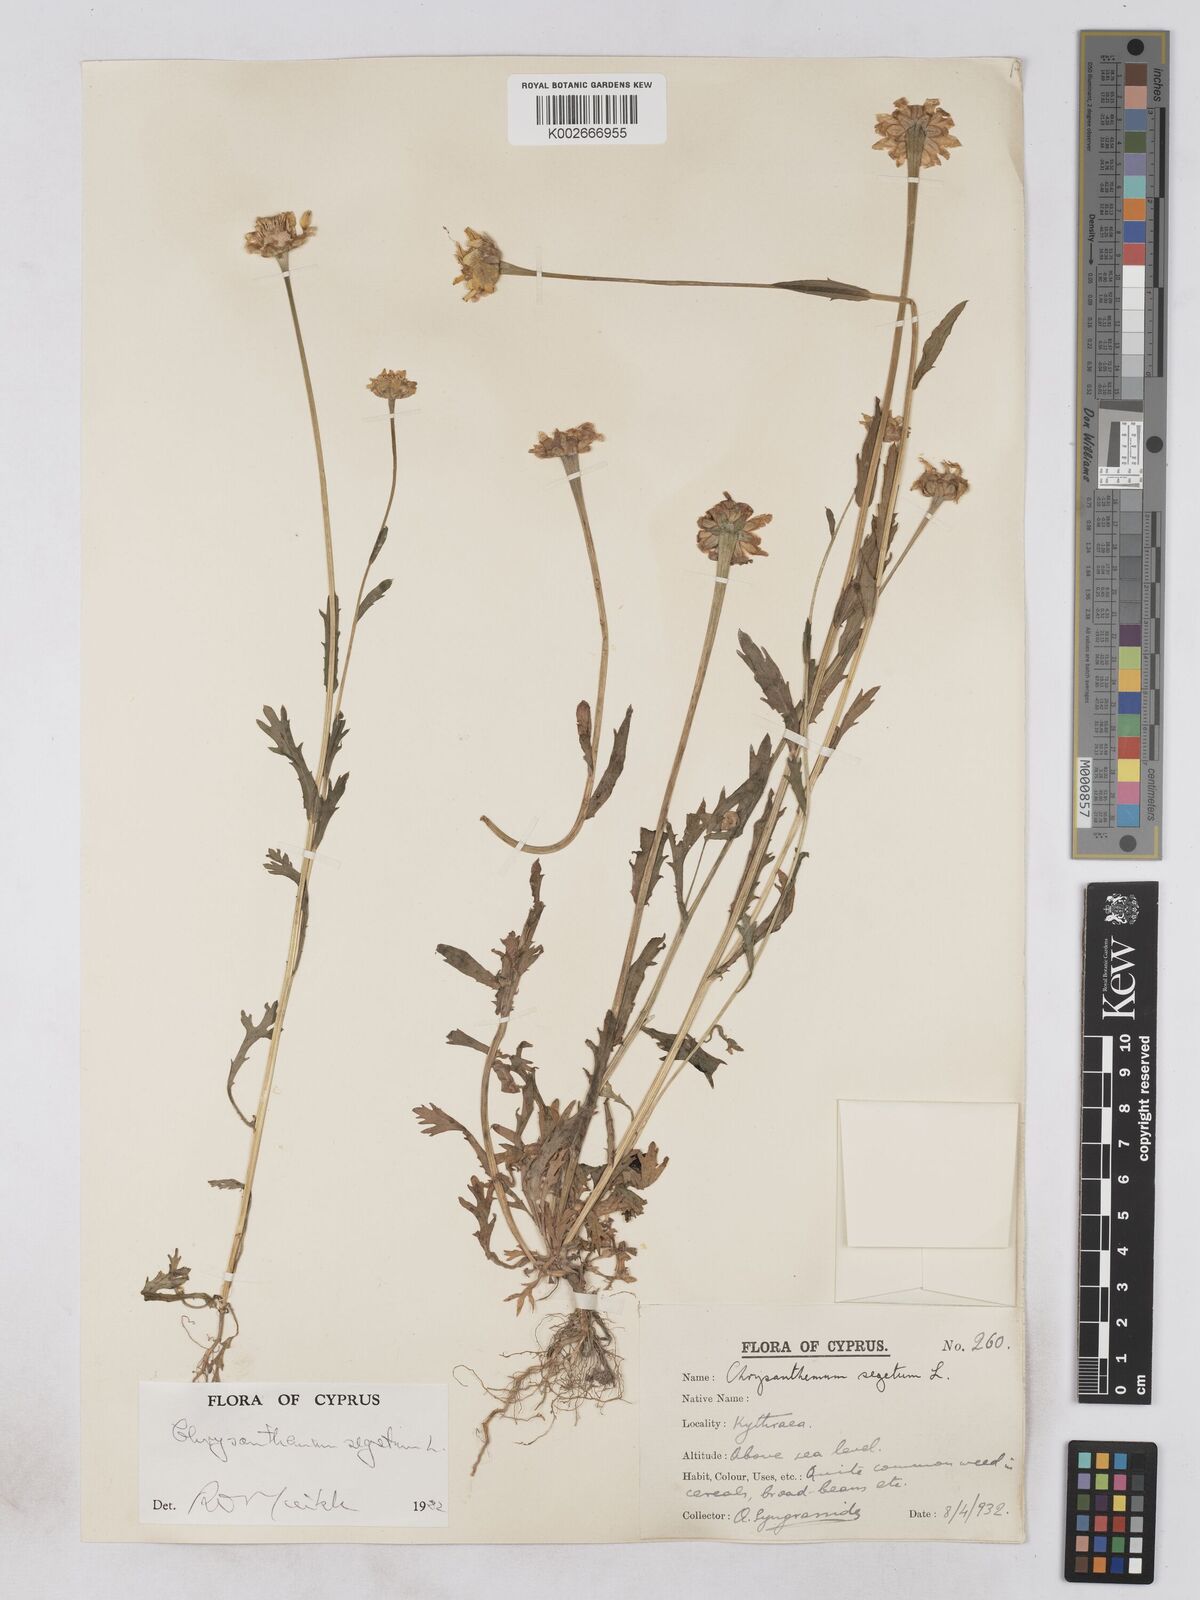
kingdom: Plantae
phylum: Tracheophyta
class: Magnoliopsida
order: Asterales
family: Asteraceae
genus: Glebionis
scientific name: Glebionis segetum
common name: Corndaisy
